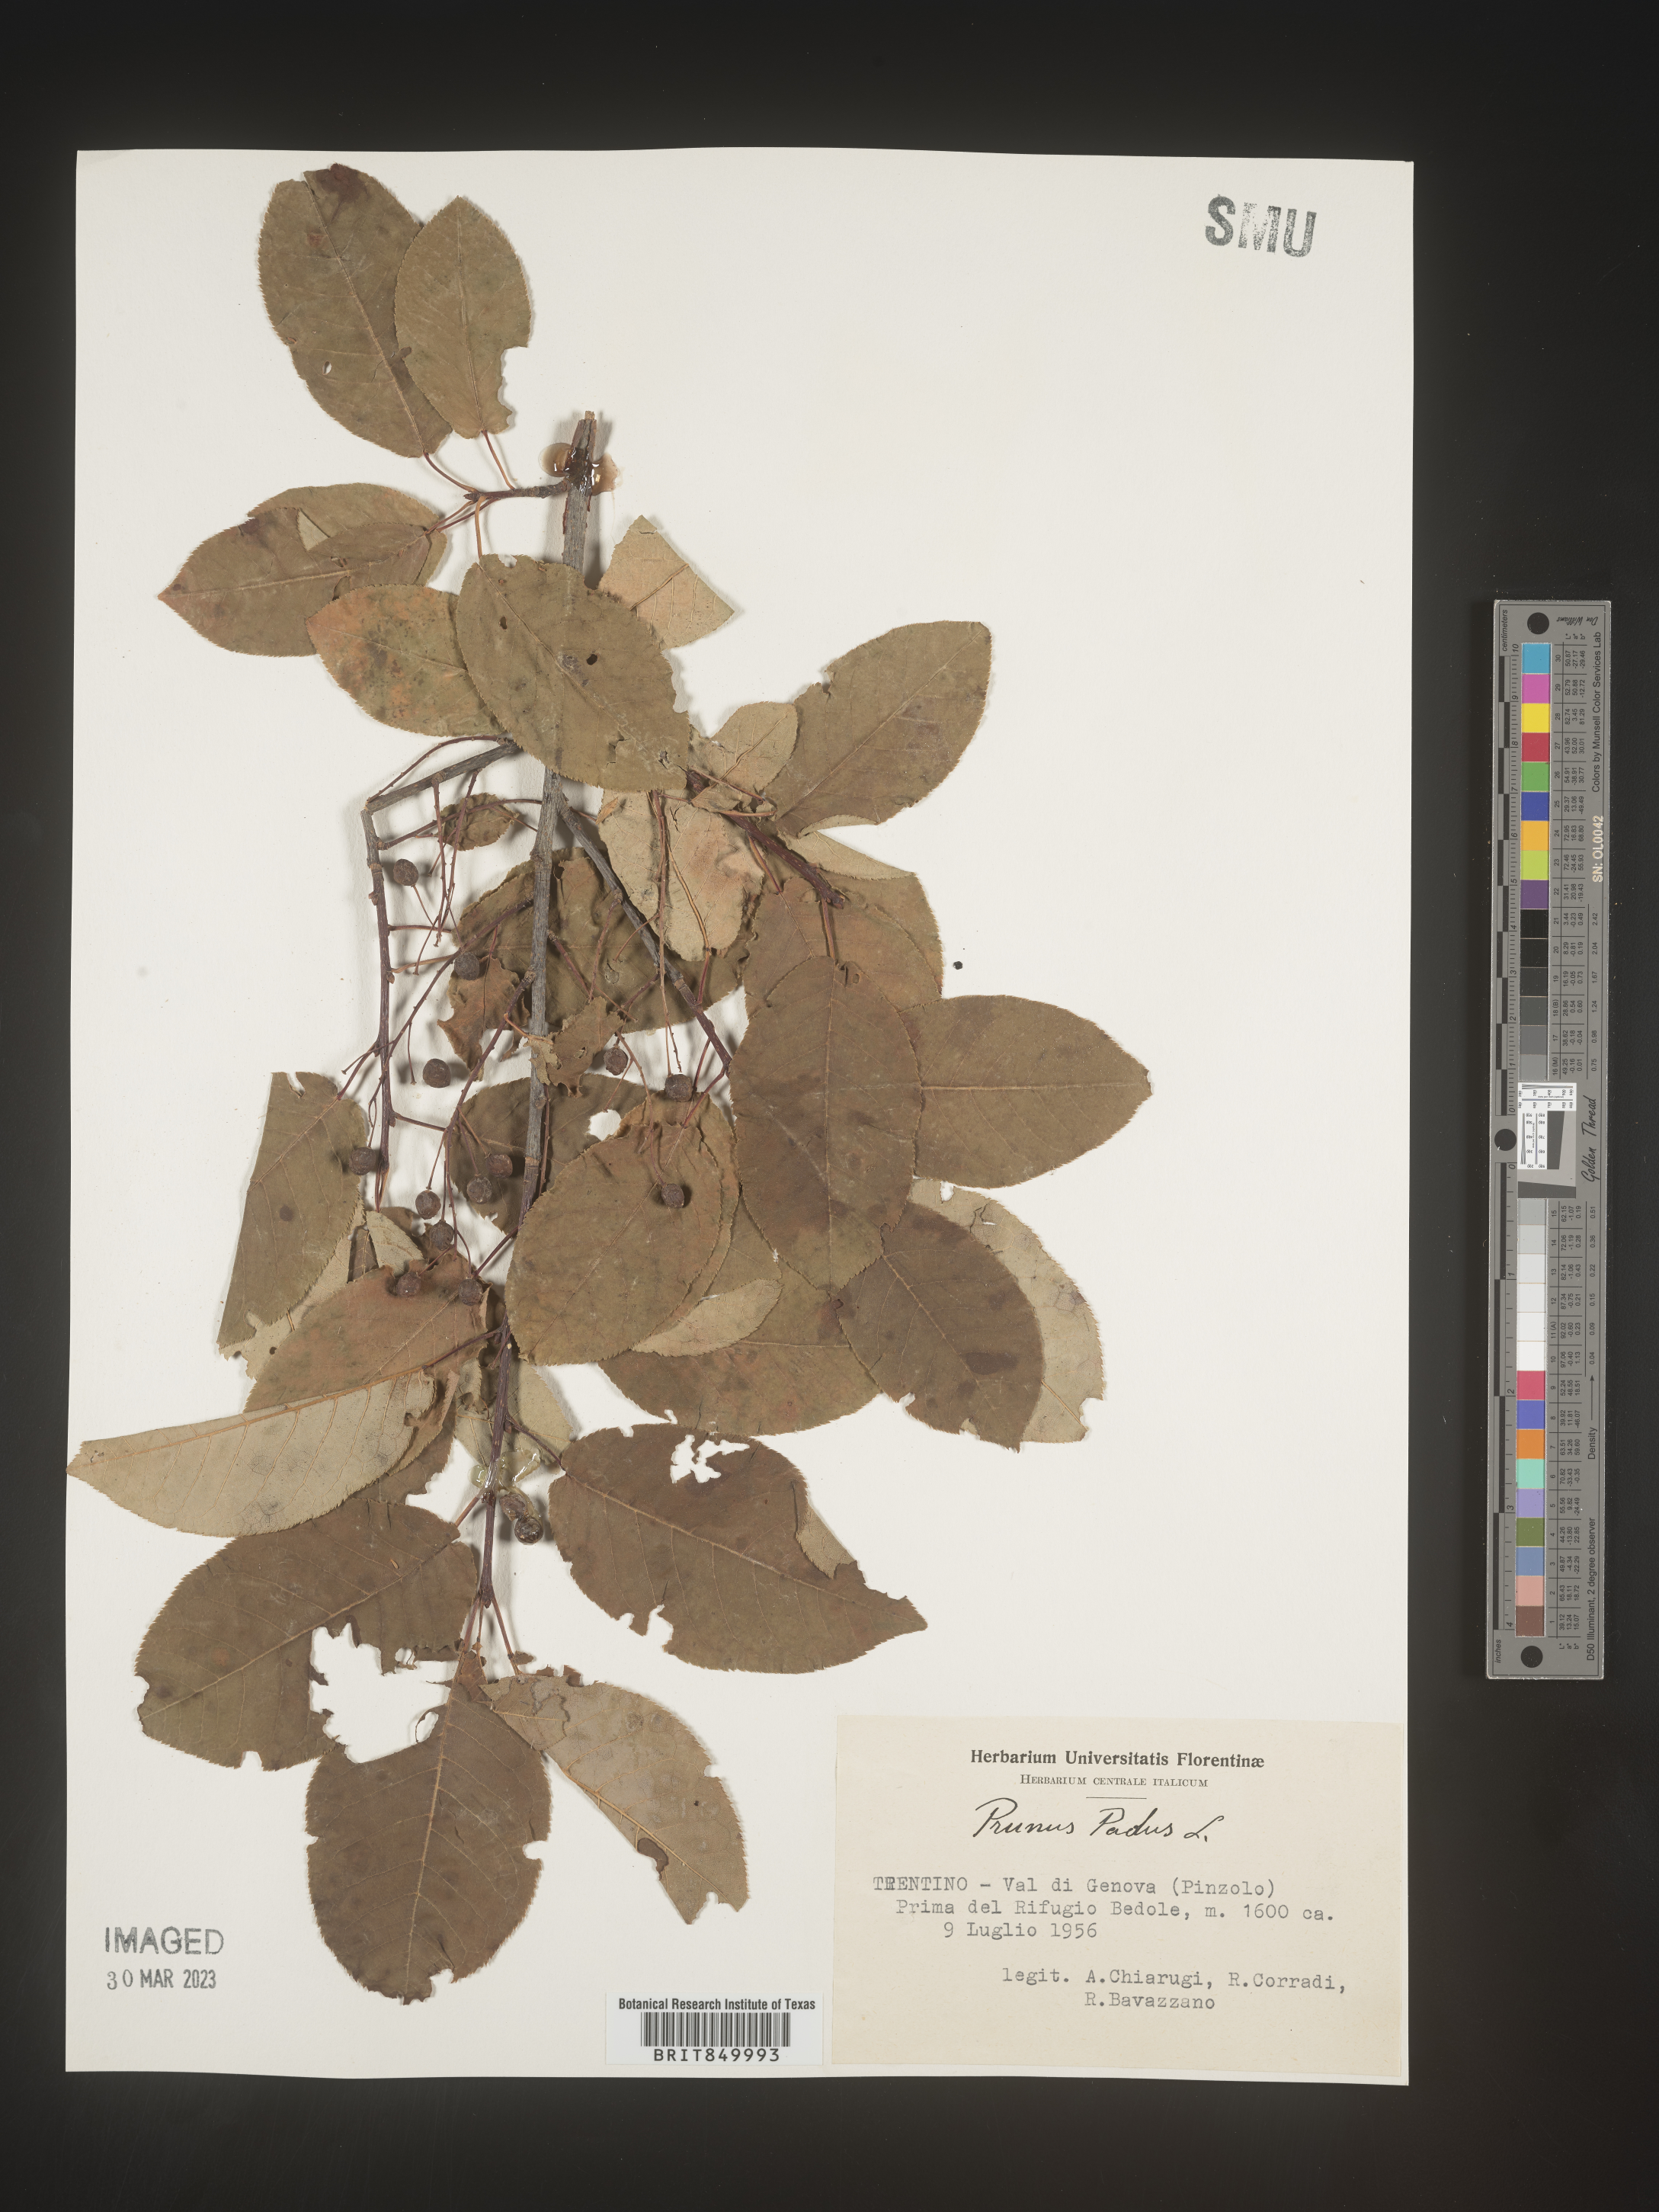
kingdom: Plantae
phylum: Tracheophyta
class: Magnoliopsida
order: Rosales
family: Rosaceae
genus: Prunus
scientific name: Prunus
